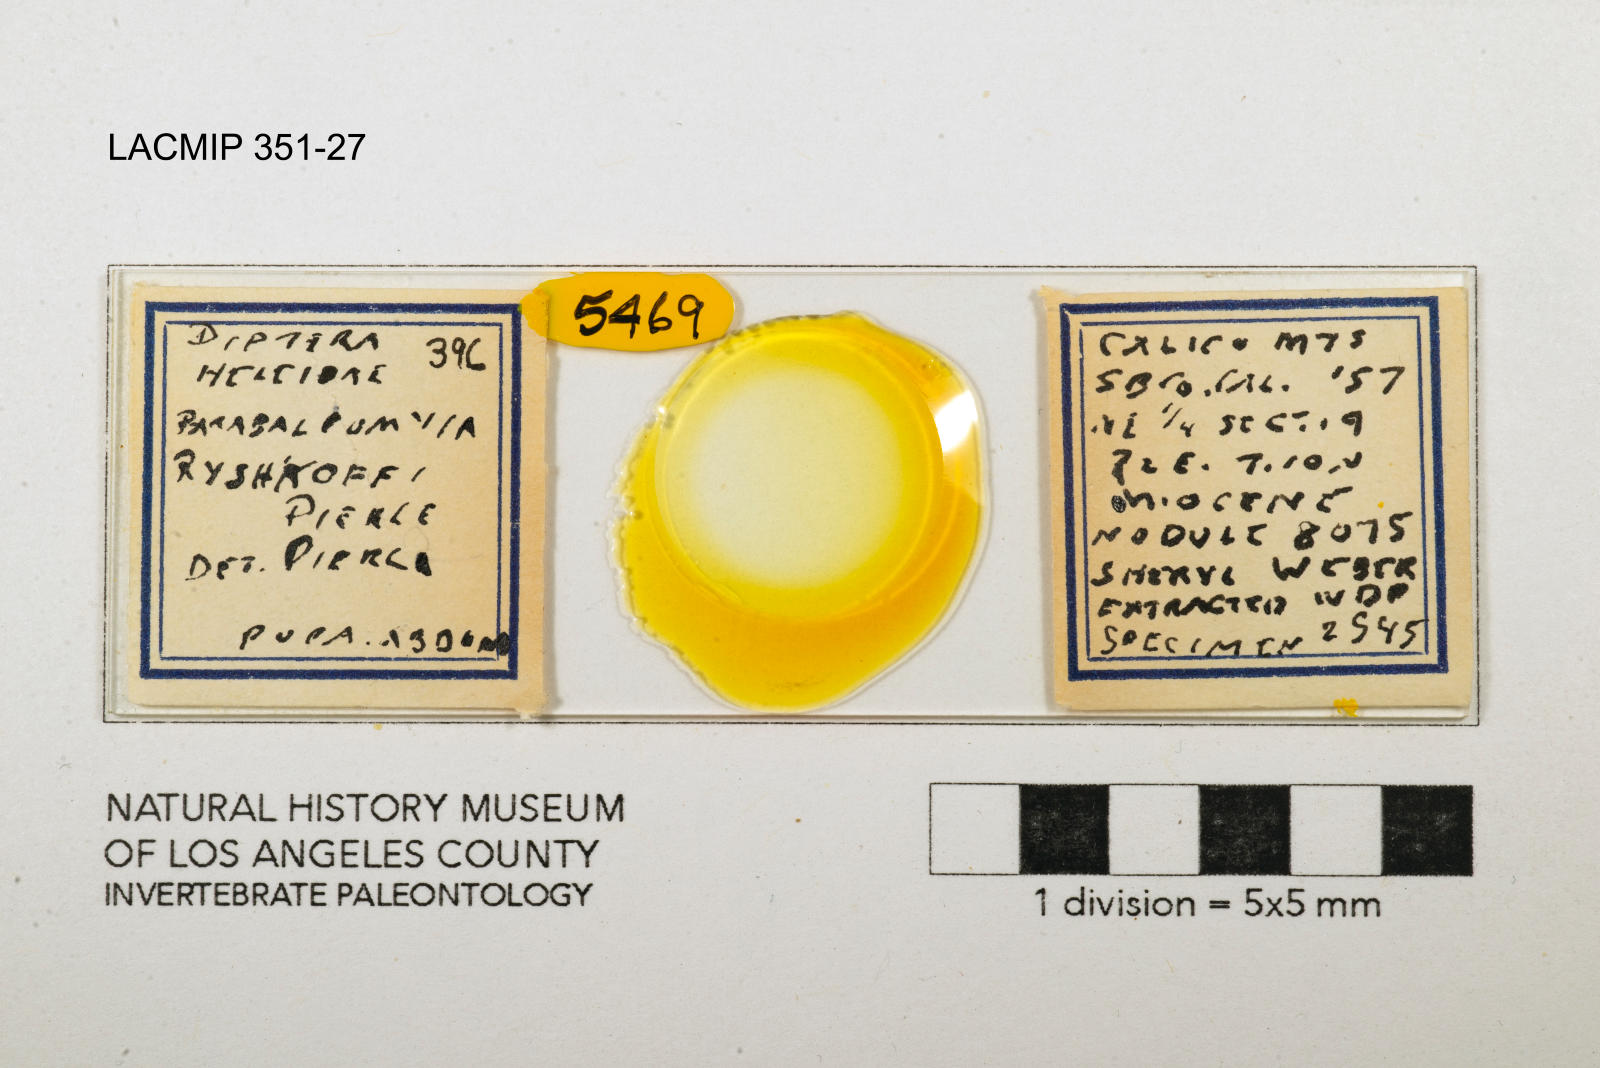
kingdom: Animalia
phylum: Arthropoda
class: Insecta
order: Diptera
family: Ceratopogonidae
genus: Palpomyia
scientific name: Palpomyia ryshkoffi
